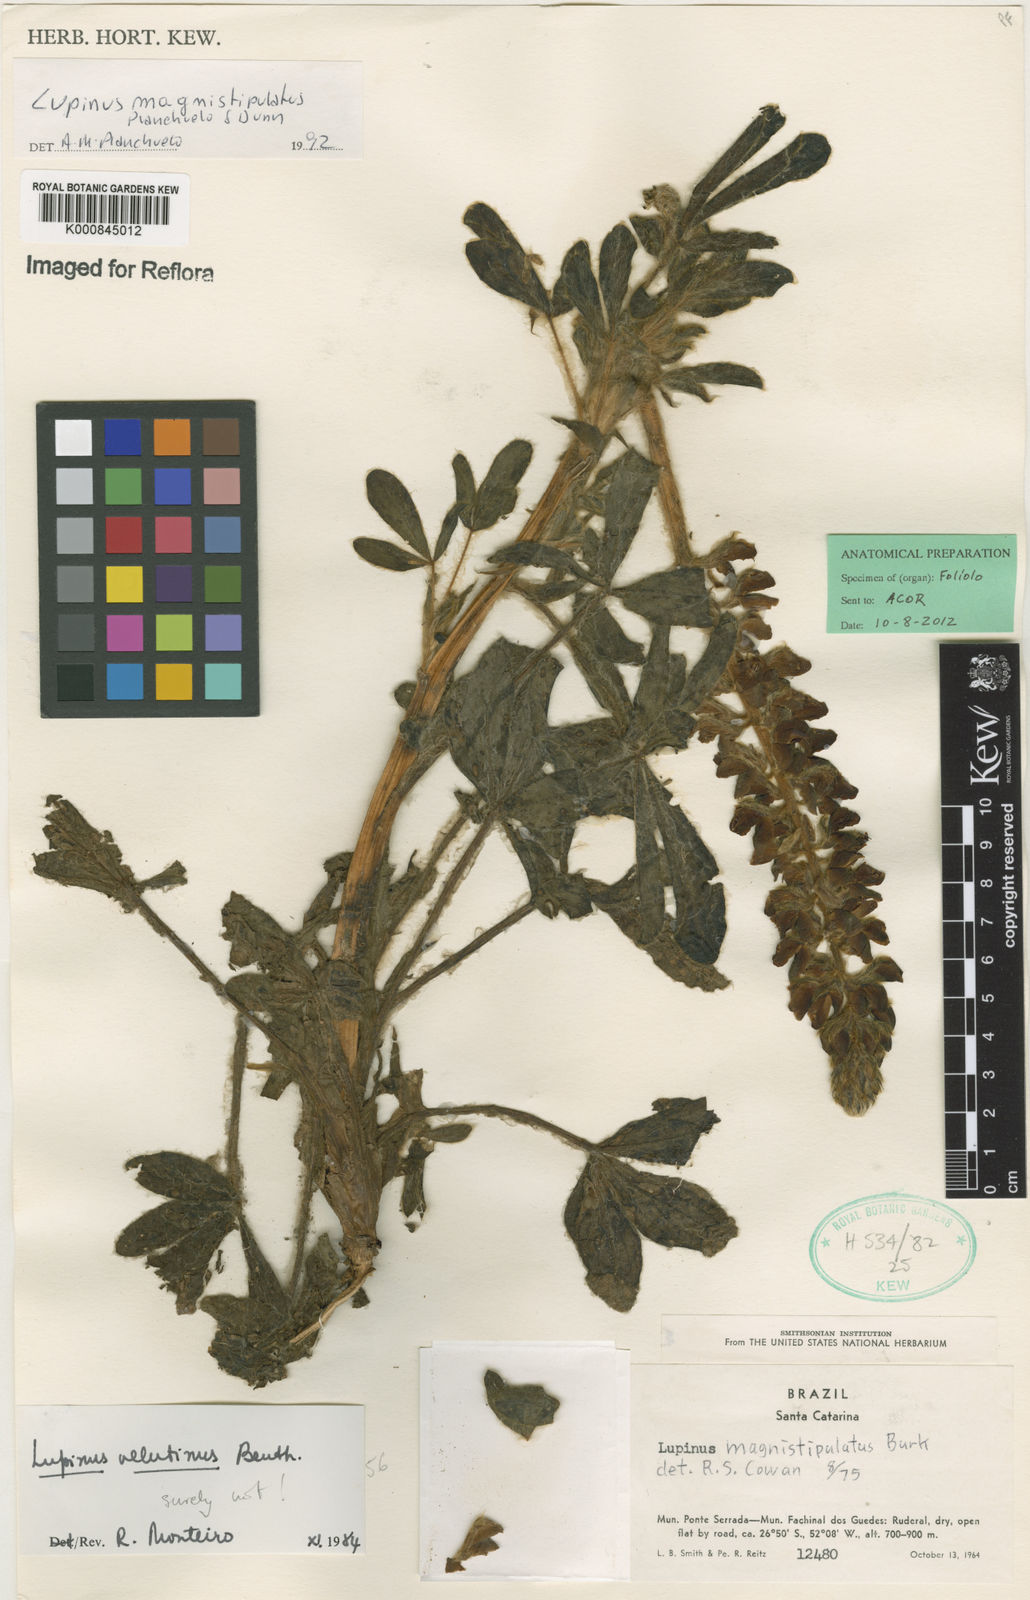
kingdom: Plantae
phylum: Tracheophyta
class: Magnoliopsida
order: Fabales
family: Fabaceae
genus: Lupinus
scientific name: Lupinus magnistipulatus
